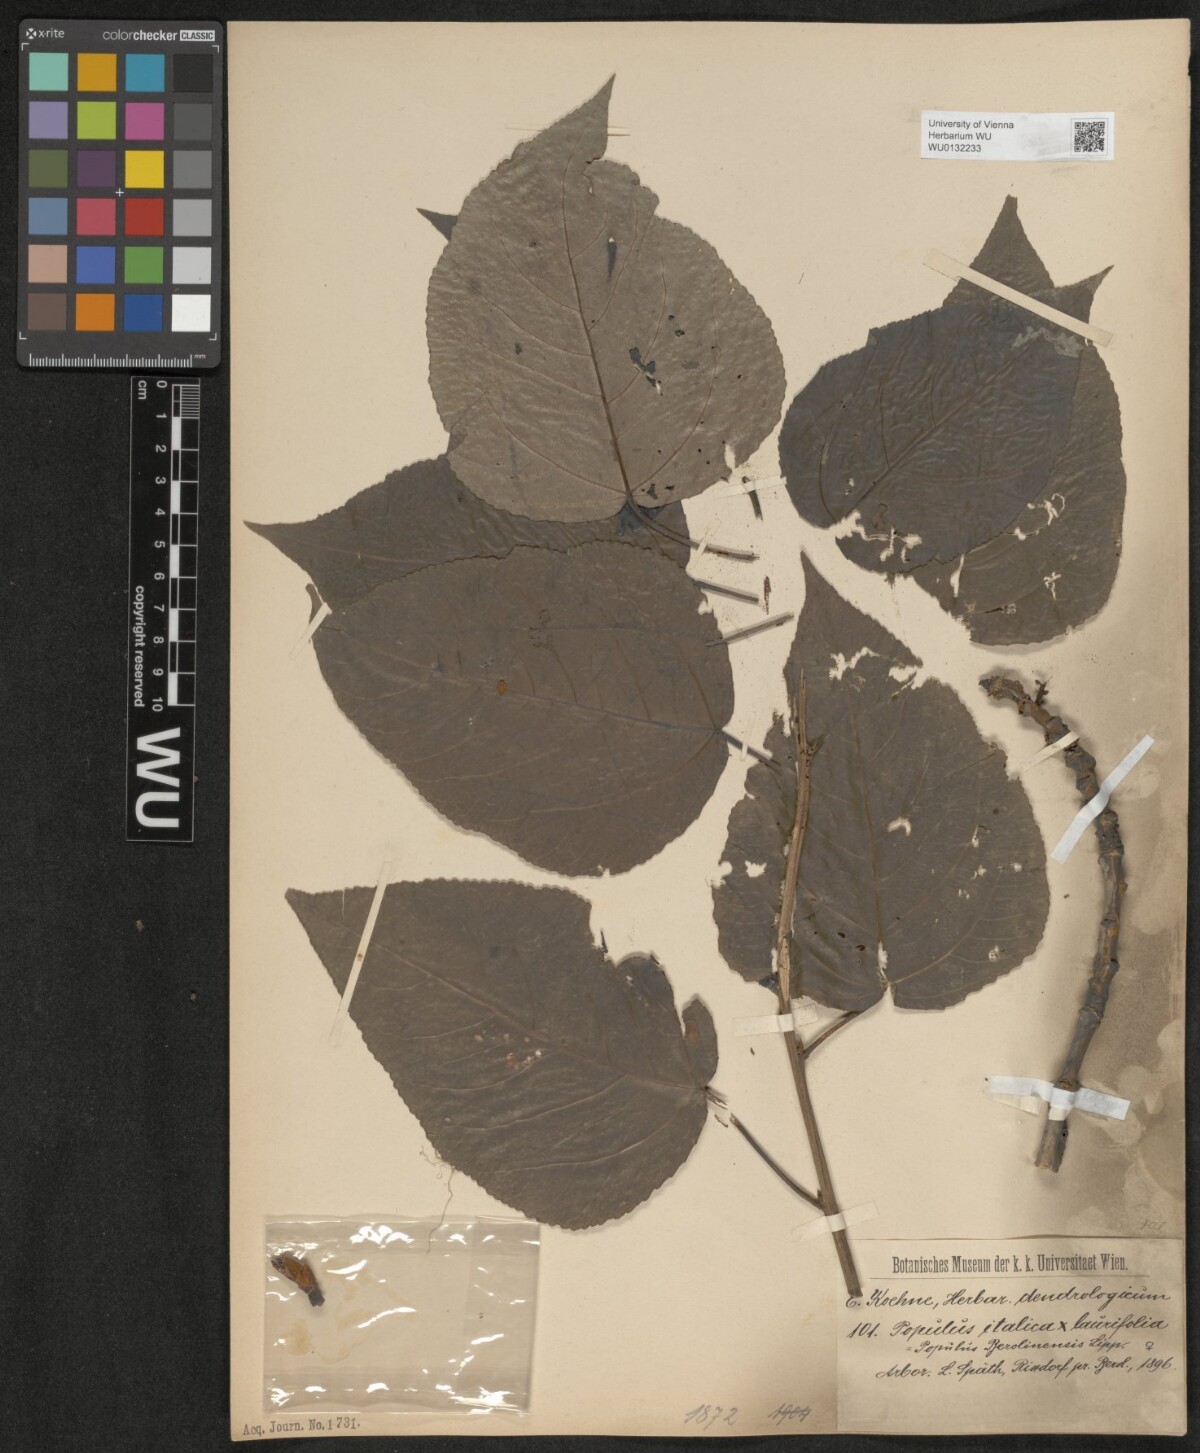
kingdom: Plantae
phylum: Tracheophyta
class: Magnoliopsida
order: Malpighiales
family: Salicaceae
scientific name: Salicaceae
